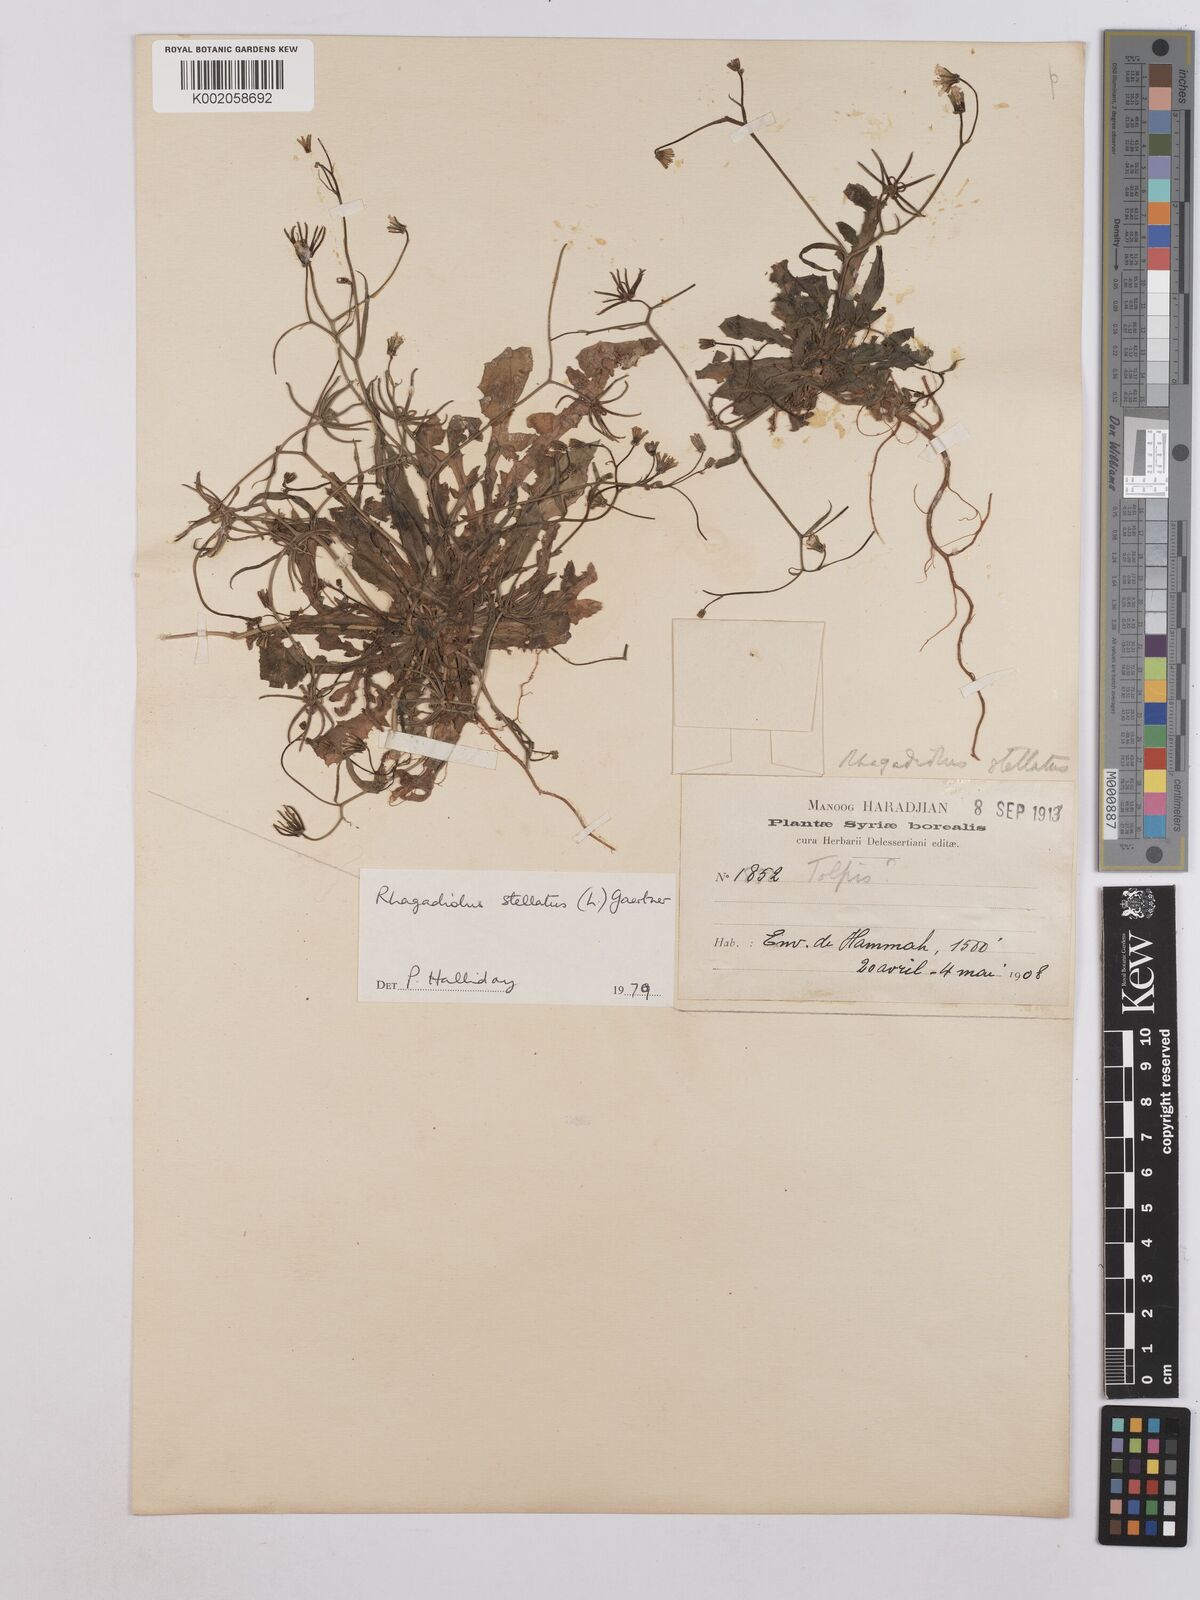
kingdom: Plantae
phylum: Tracheophyta
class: Magnoliopsida
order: Asterales
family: Asteraceae
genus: Rhagadiolus
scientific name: Rhagadiolus stellatus
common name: Star hawkbit
